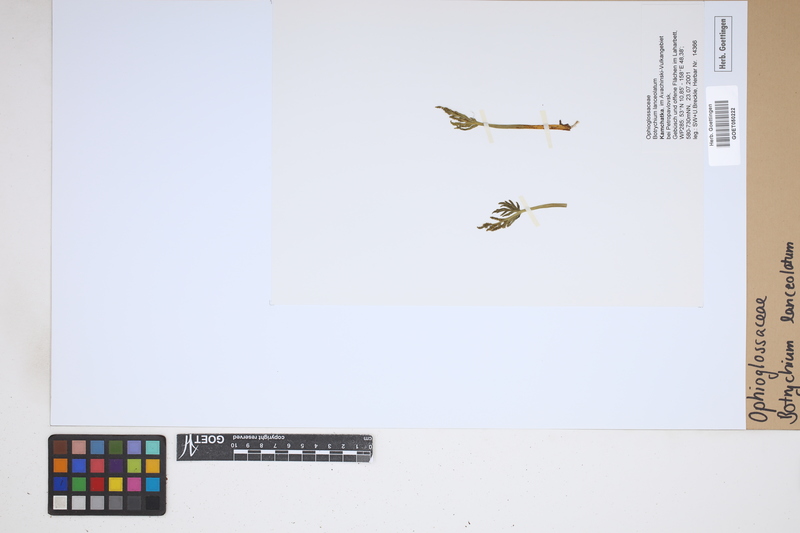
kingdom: Plantae
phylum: Tracheophyta
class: Polypodiopsida
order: Ophioglossales
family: Ophioglossaceae
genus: Botrychium
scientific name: Botrychium lanceolatum
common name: Lance-leaved moonwort
